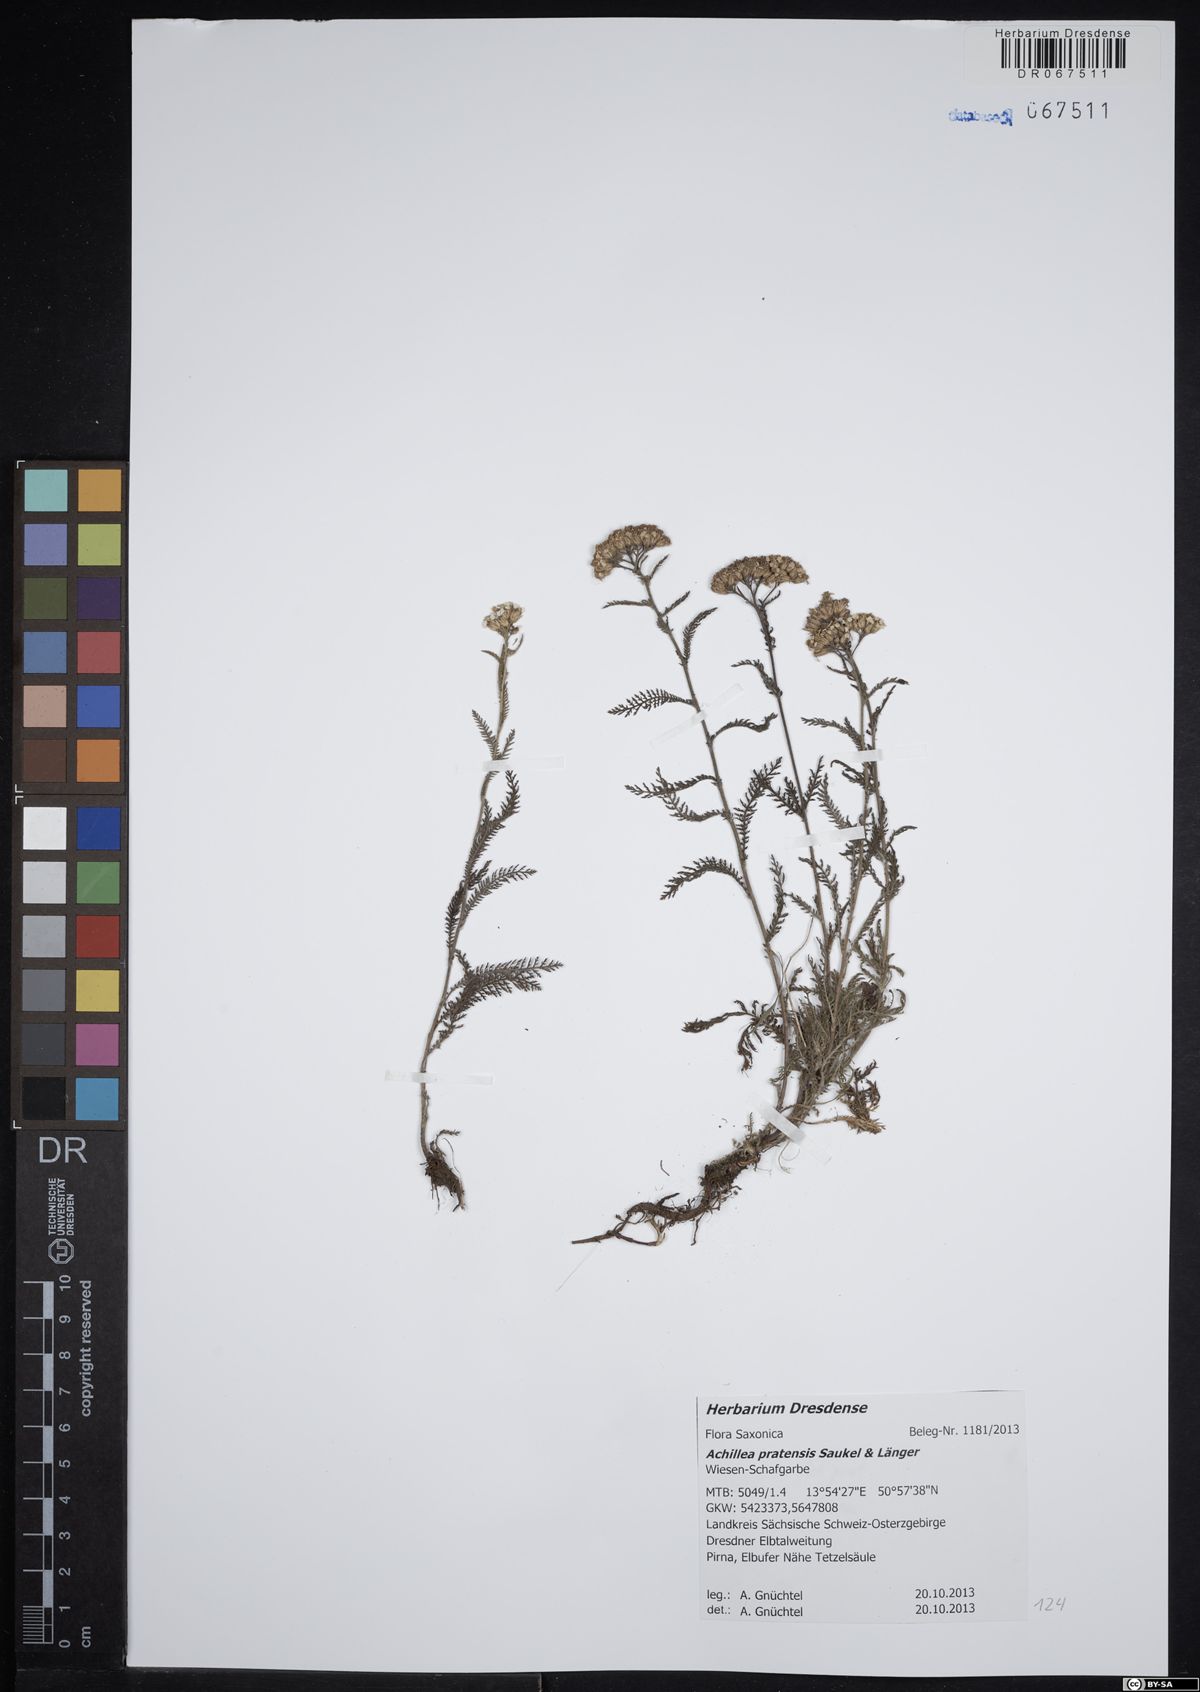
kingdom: Plantae
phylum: Tracheophyta
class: Magnoliopsida
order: Asterales
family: Asteraceae
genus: Achillea
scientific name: Achillea pratensis
